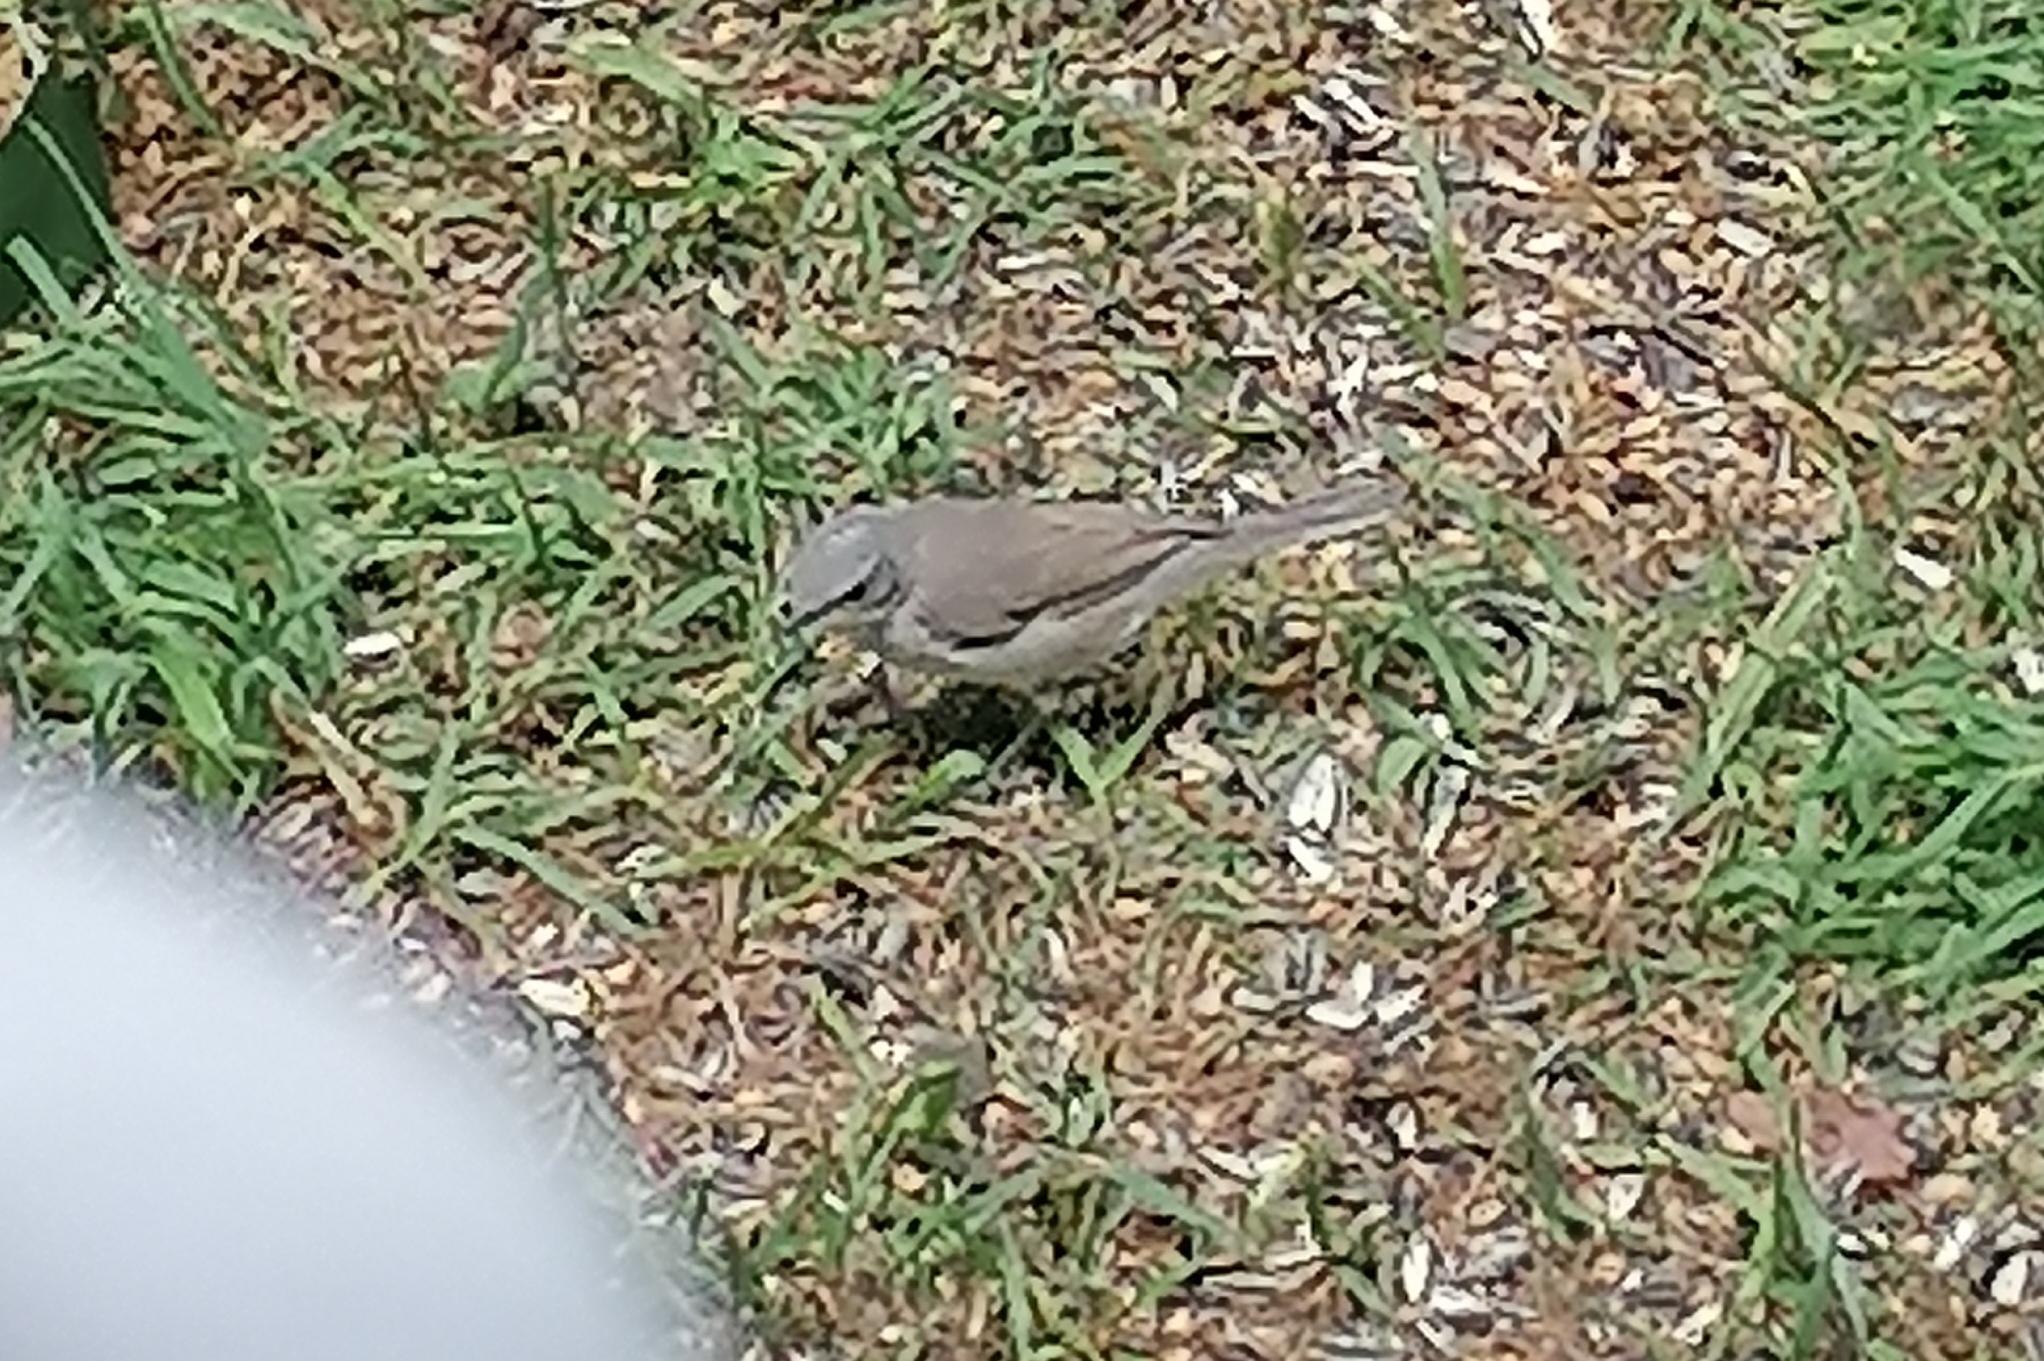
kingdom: Animalia
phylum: Chordata
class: Aves
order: Passeriformes
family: Sylviidae
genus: Sylvia
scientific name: Sylvia curruca
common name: Gærdesanger
